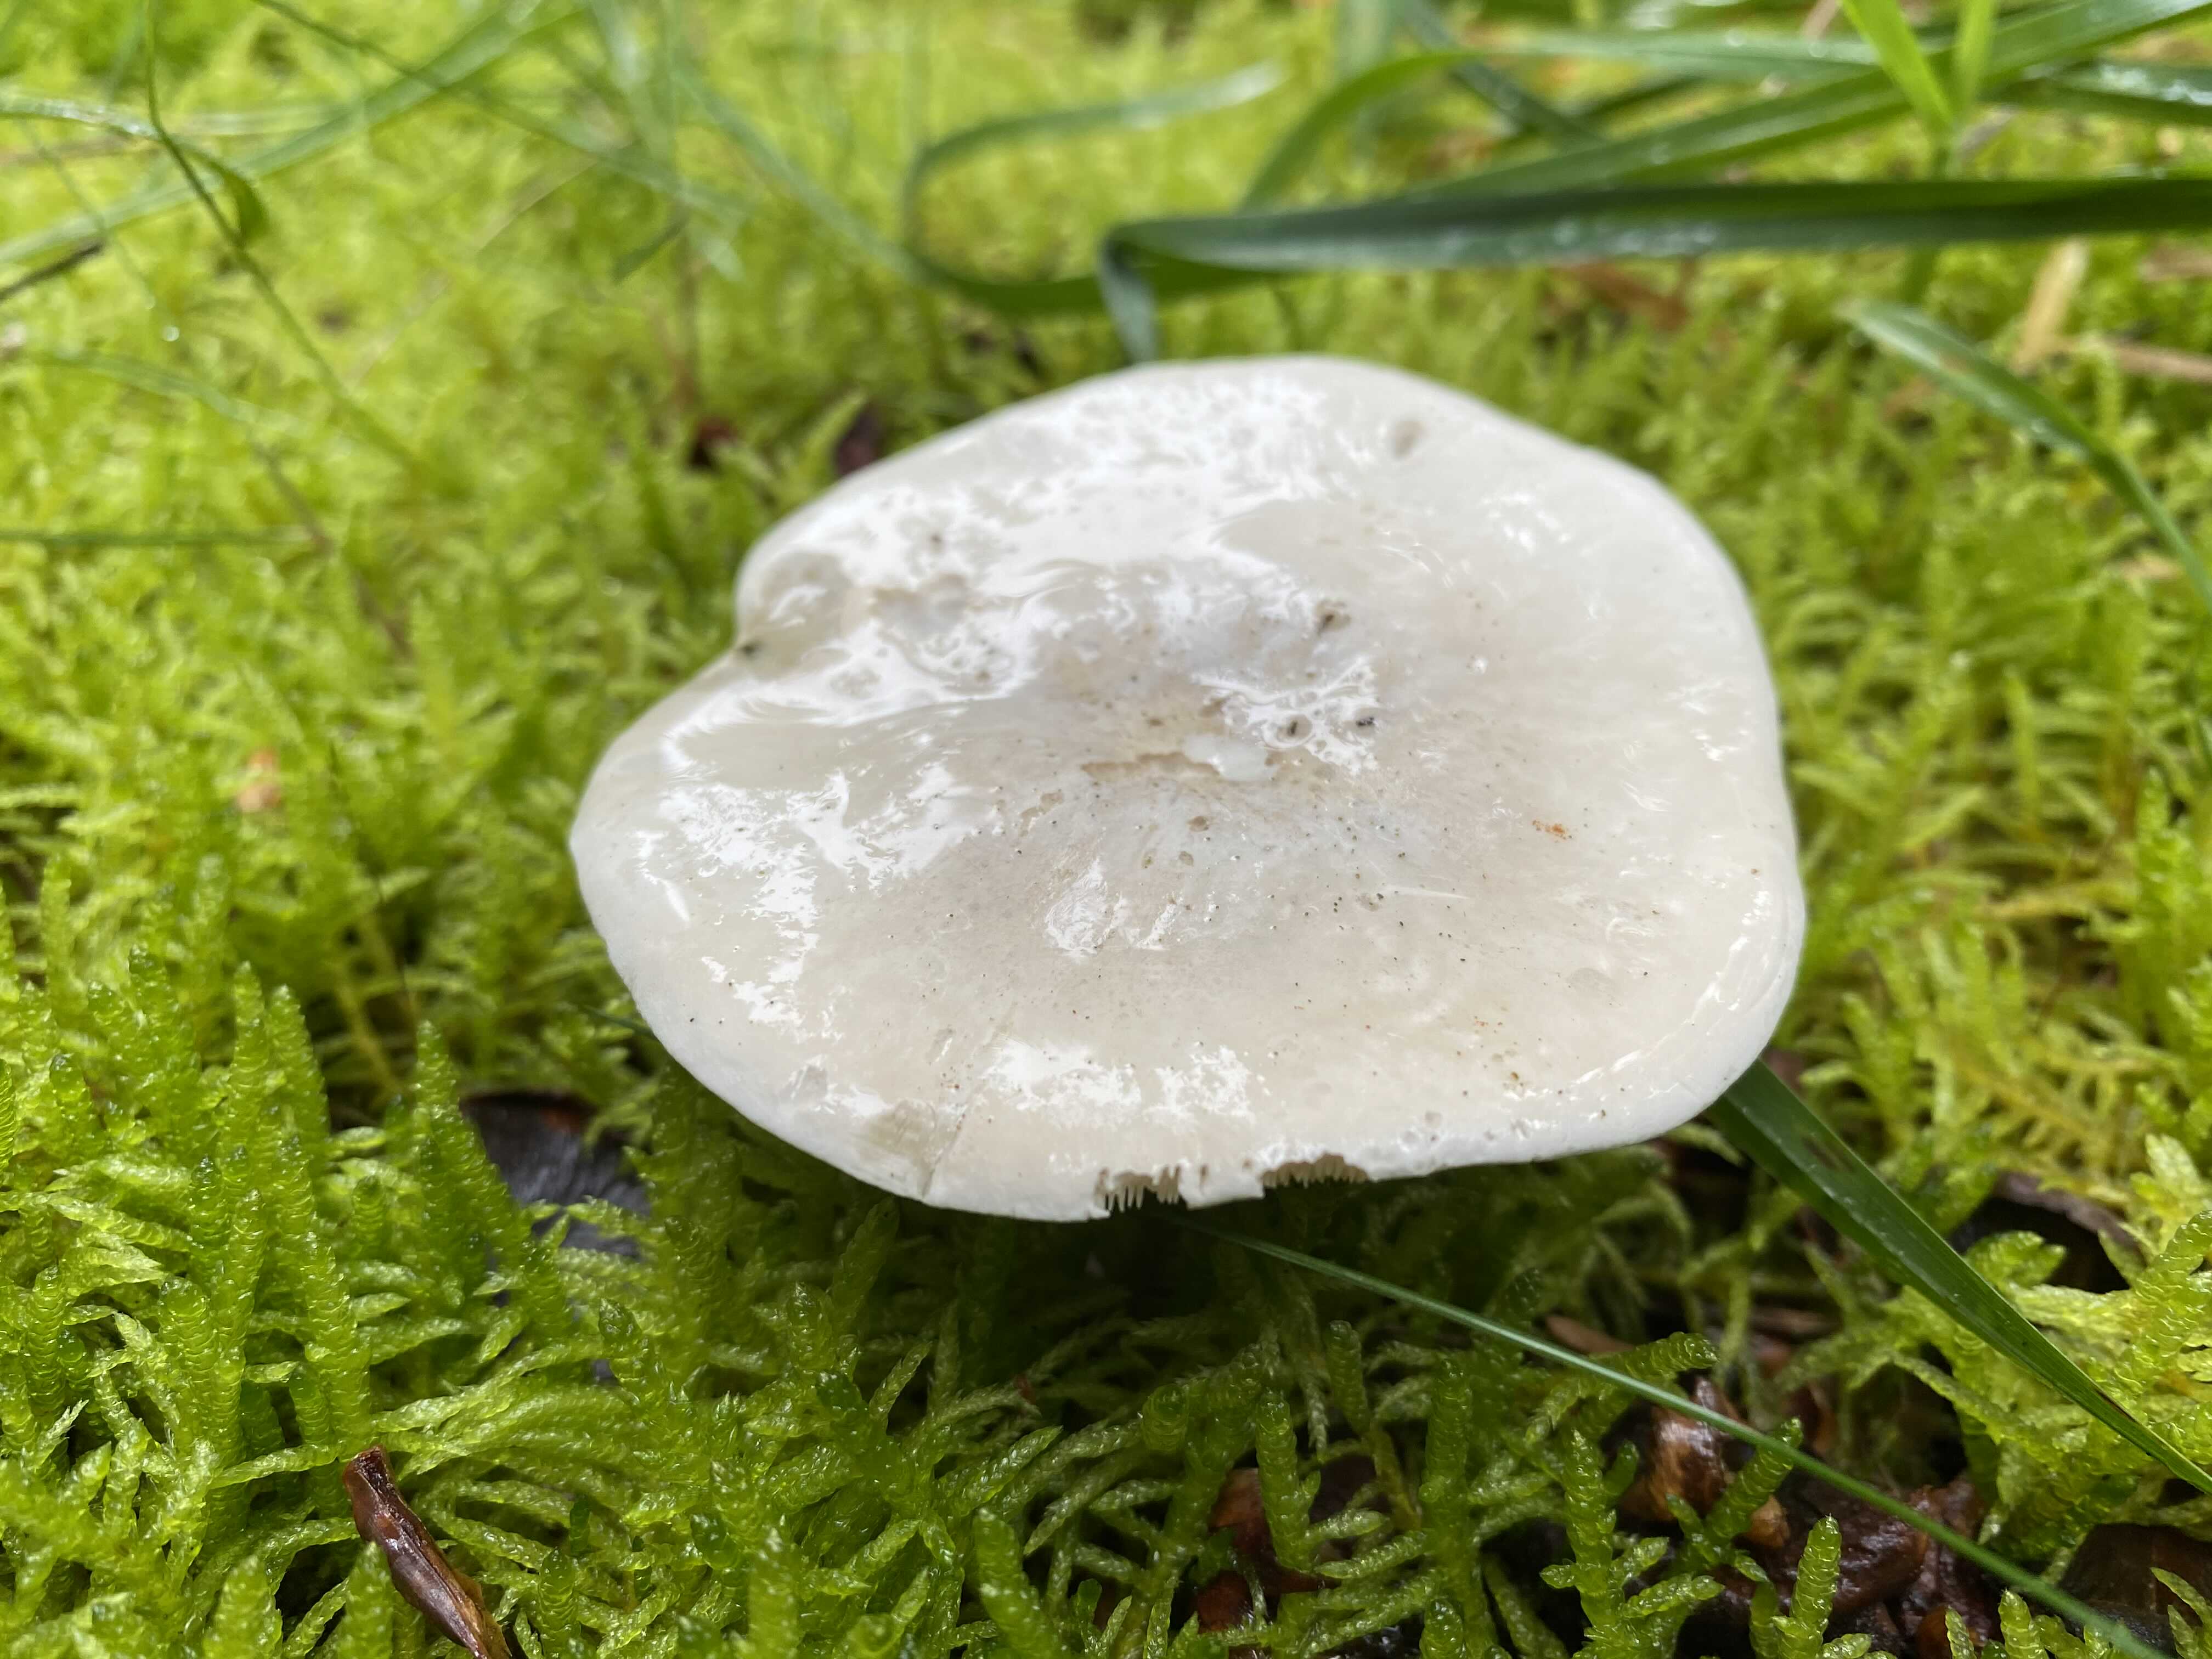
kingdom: Fungi
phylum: Basidiomycota
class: Agaricomycetes
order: Agaricales
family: Entolomataceae
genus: Clitopilus
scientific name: Clitopilus prunulus
